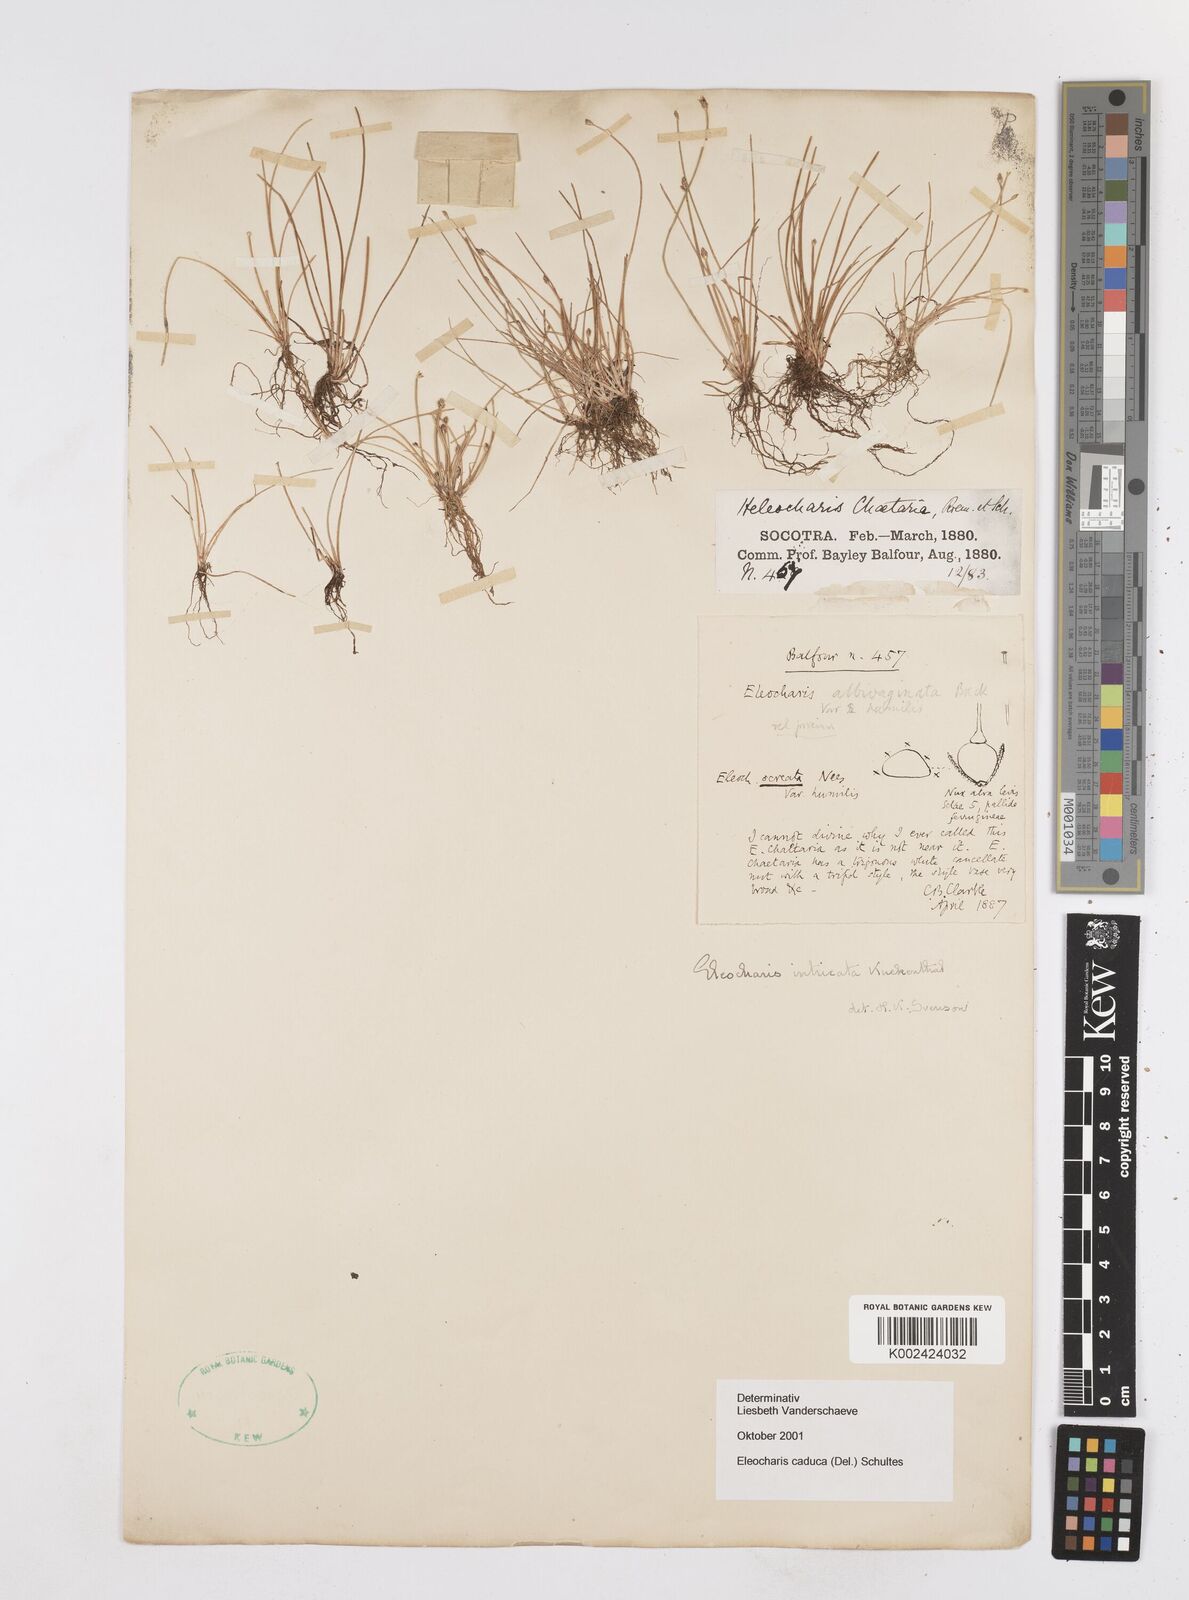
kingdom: Plantae
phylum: Tracheophyta
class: Liliopsida
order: Poales
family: Cyperaceae
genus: Eleocharis
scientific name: Eleocharis caduca
